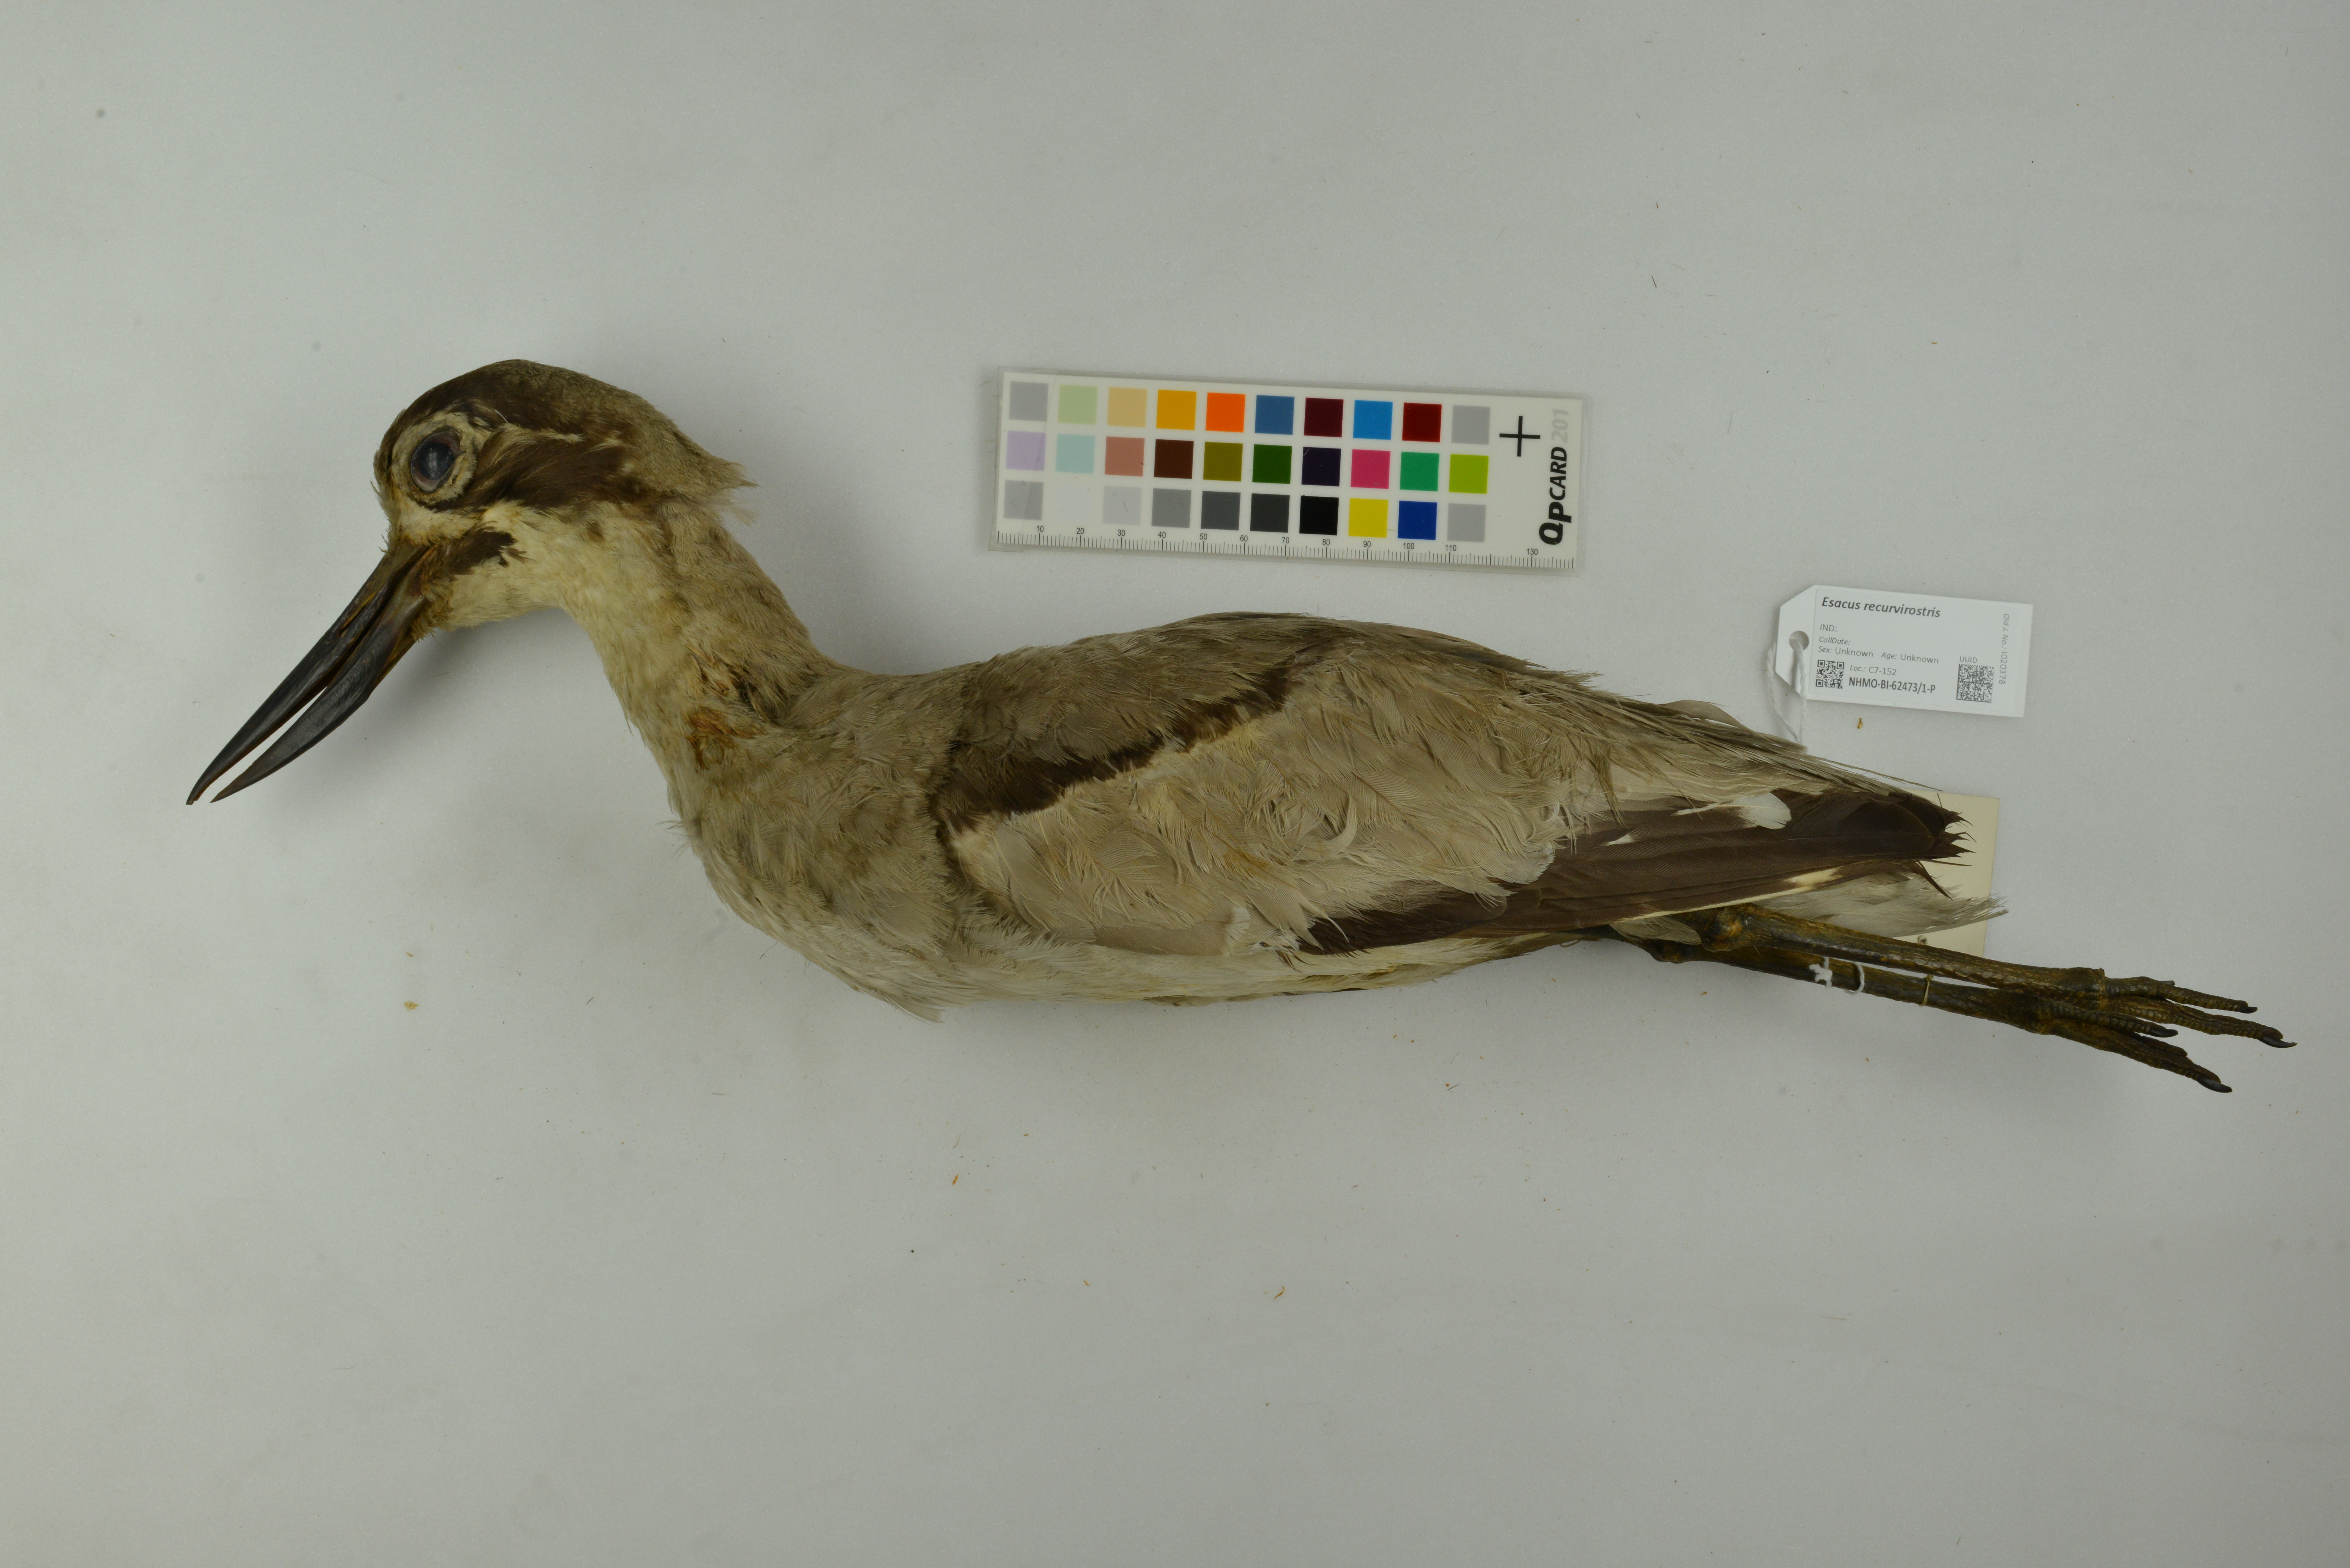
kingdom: Animalia
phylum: Chordata
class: Aves
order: Charadriiformes
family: Burhinidae
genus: Esacus
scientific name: Esacus recurvirostris
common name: Great stone-curlew
